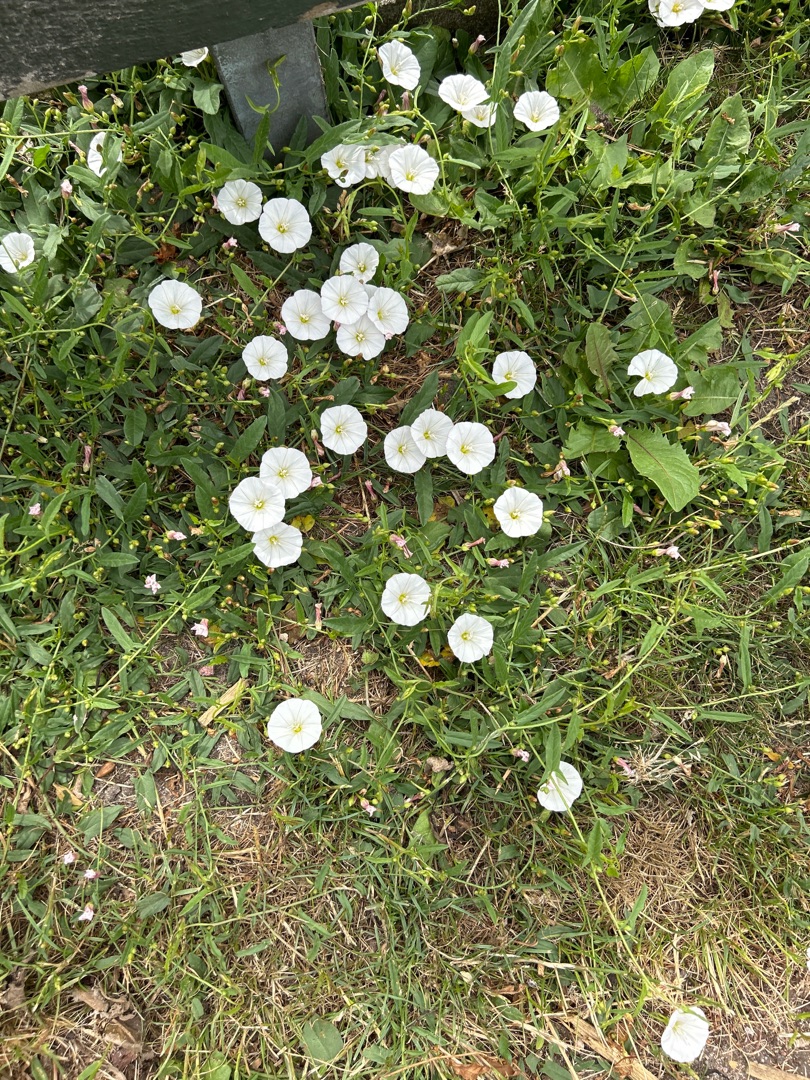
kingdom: Plantae
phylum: Tracheophyta
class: Magnoliopsida
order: Solanales
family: Convolvulaceae
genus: Convolvulus
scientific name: Convolvulus arvensis
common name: Ager-snerle
